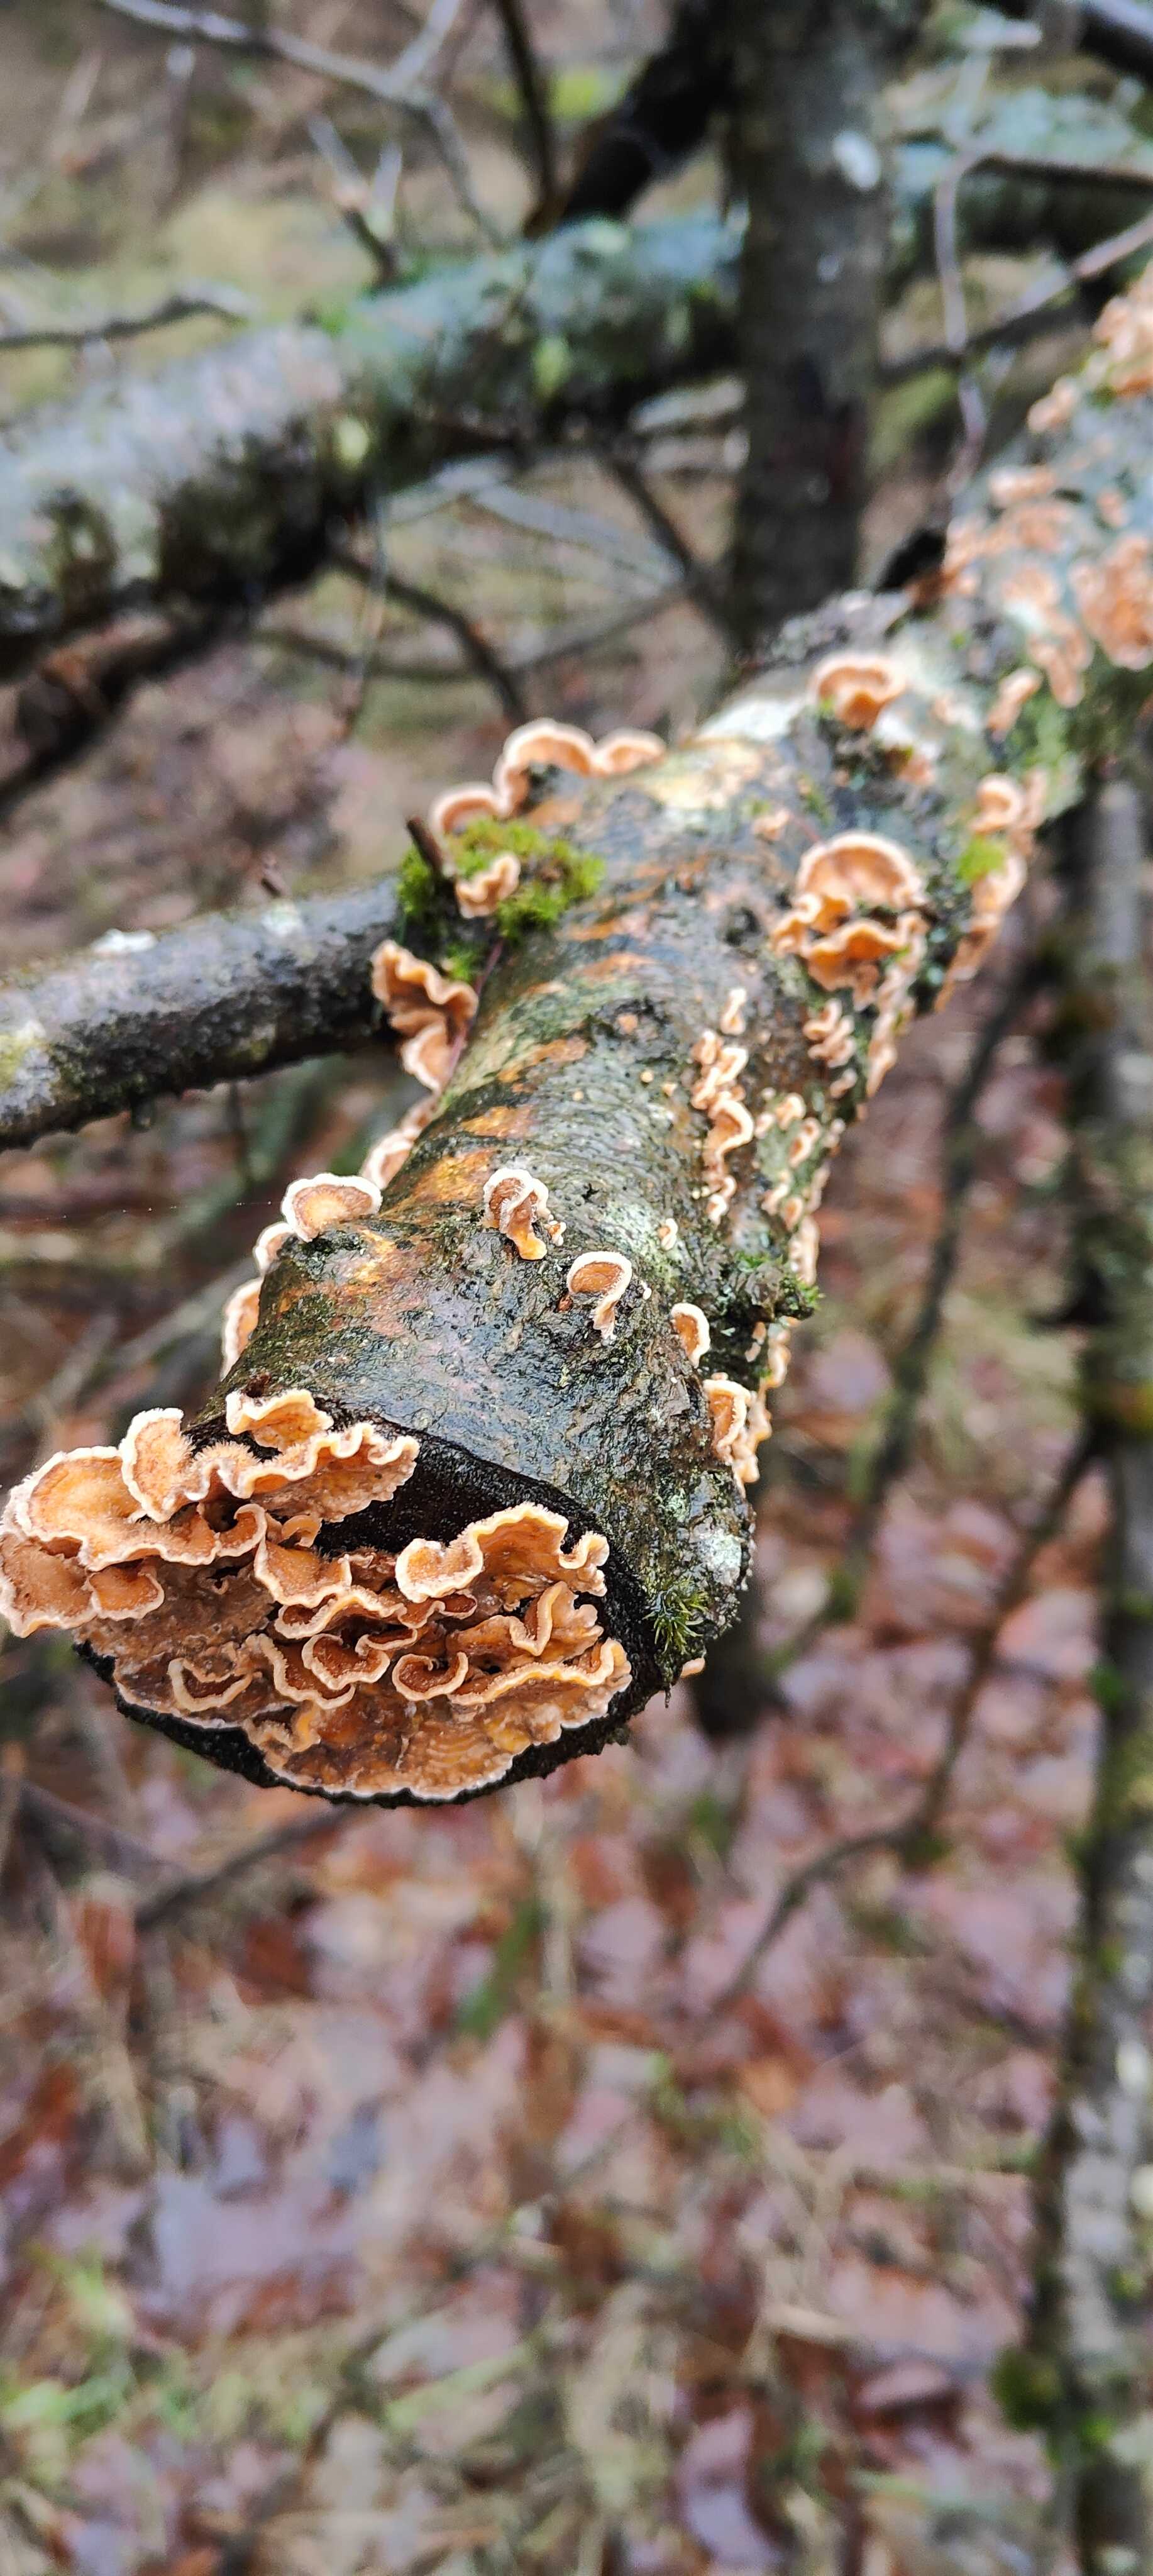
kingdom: Fungi
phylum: Basidiomycota
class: Agaricomycetes
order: Russulales
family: Stereaceae
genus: Stereum
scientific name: Stereum hirsutum
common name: håret lædersvamp
